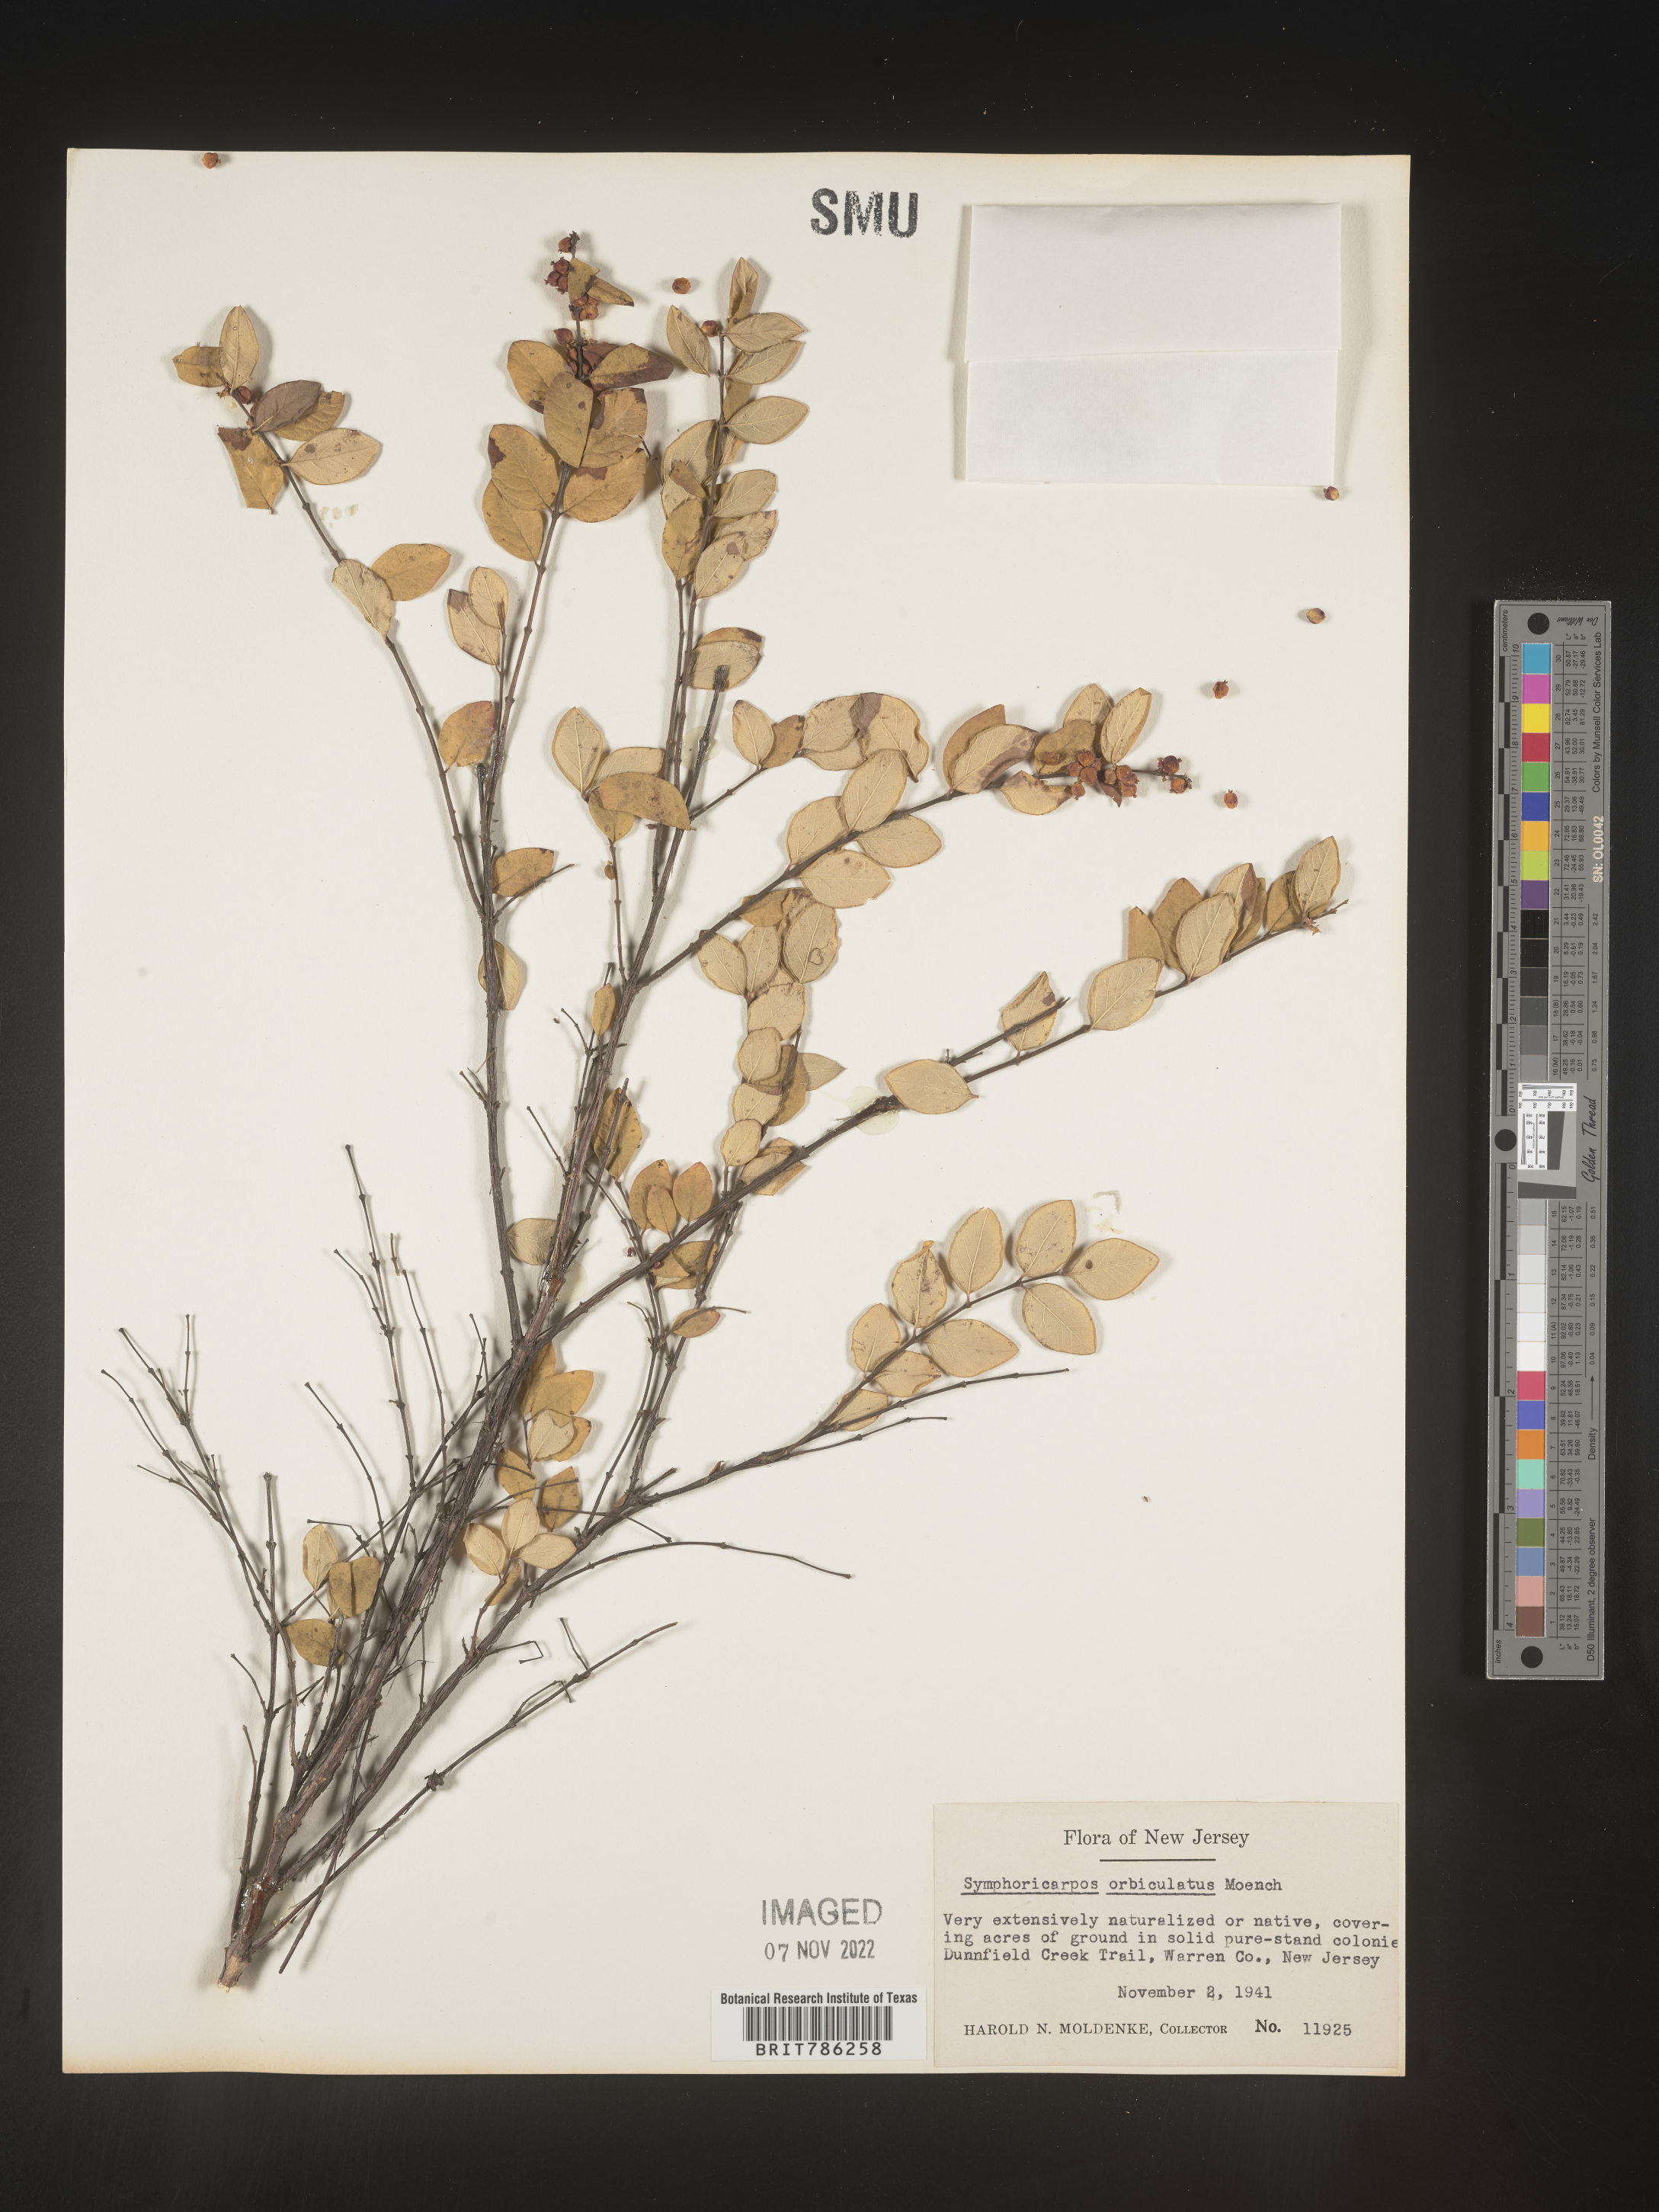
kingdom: Plantae
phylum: Tracheophyta
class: Magnoliopsida
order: Dipsacales
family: Caprifoliaceae
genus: Symphoricarpos
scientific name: Symphoricarpos orbiculatus
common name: Coralberry
